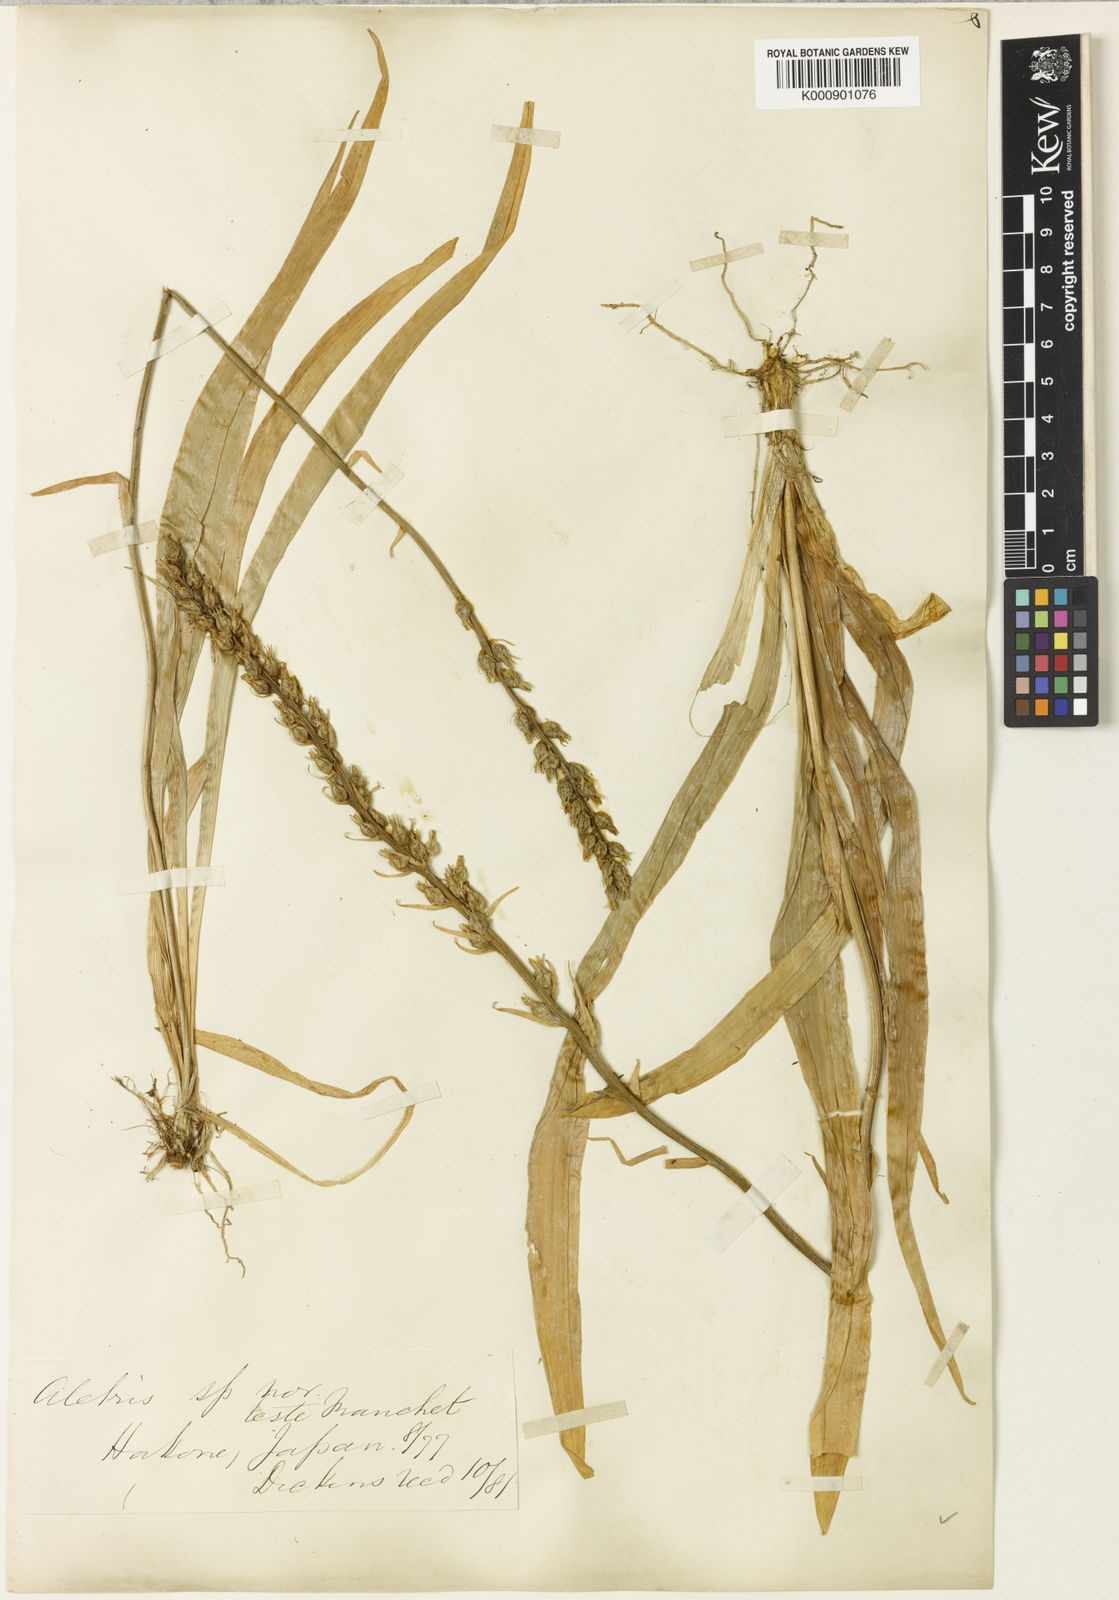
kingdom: Plantae
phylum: Tracheophyta
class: Liliopsida
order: Dioscoreales
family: Nartheciaceae
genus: Aletris
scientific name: Aletris foliata
